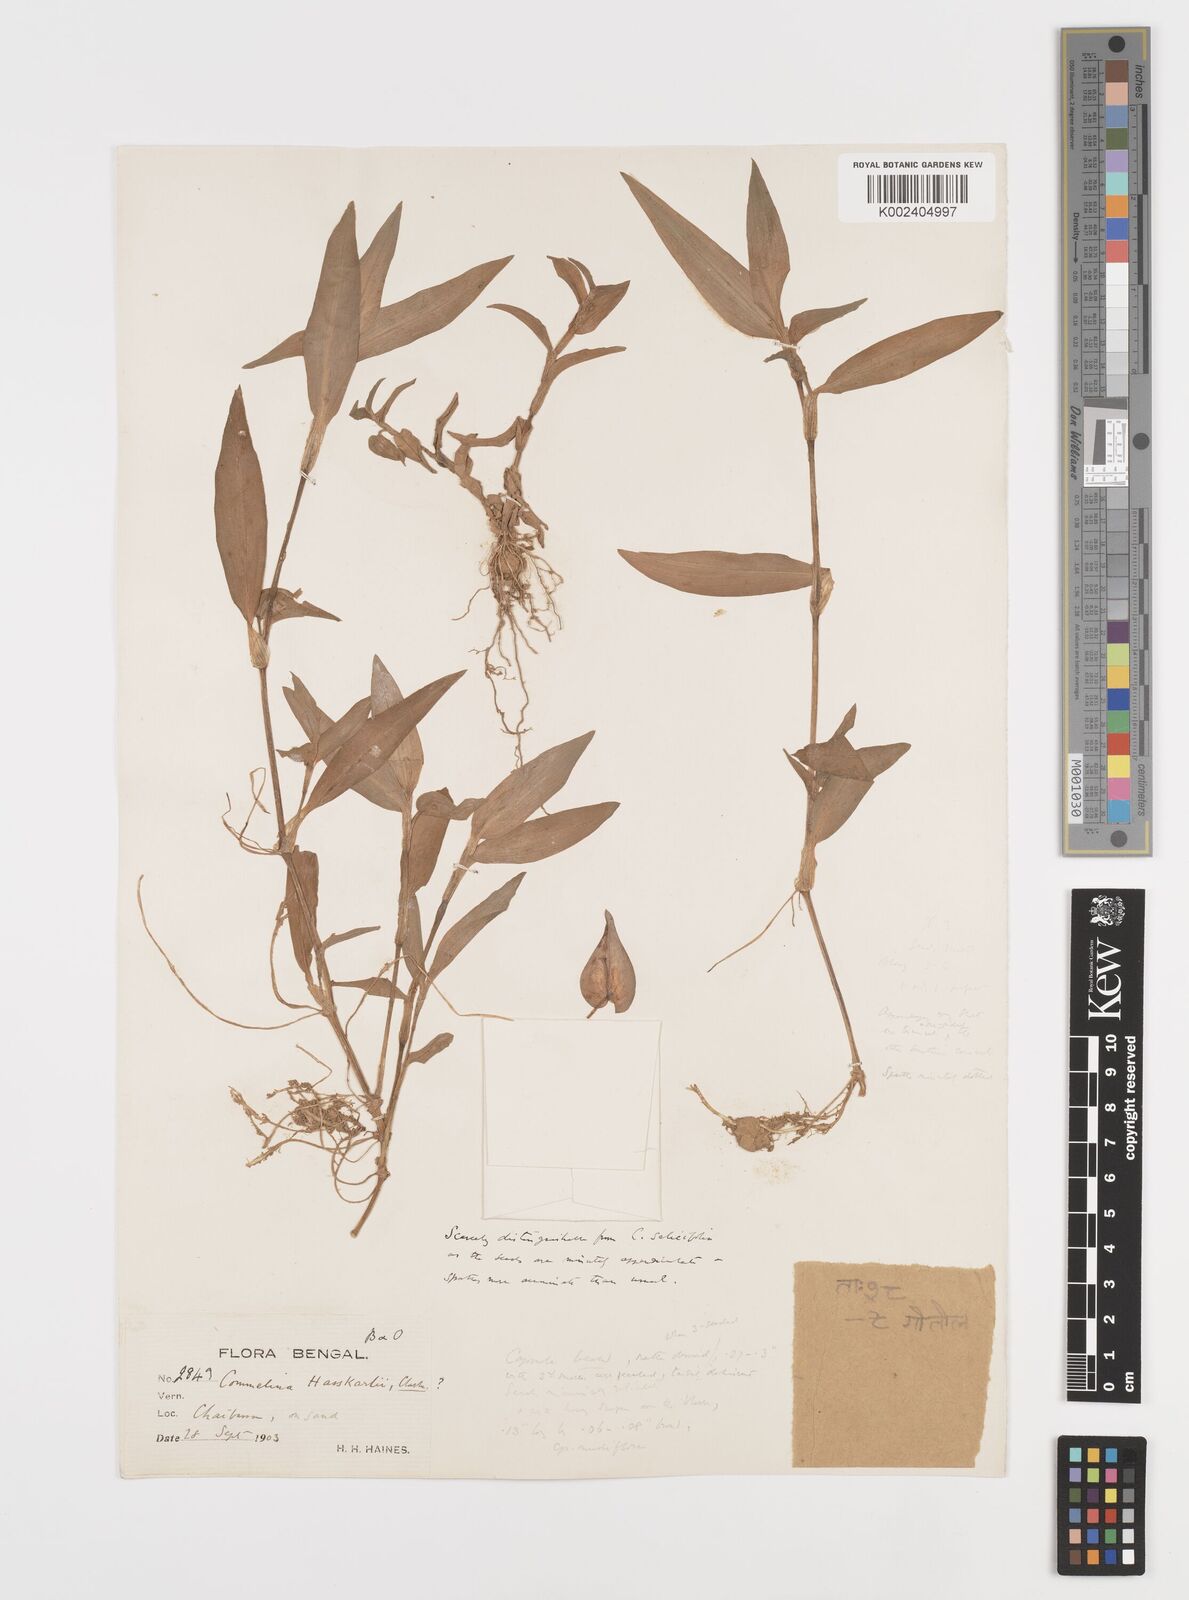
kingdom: Plantae
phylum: Tracheophyta
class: Liliopsida
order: Commelinales
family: Commelinaceae
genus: Commelina
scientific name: Commelina caroliniana
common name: Carolina dayflower
